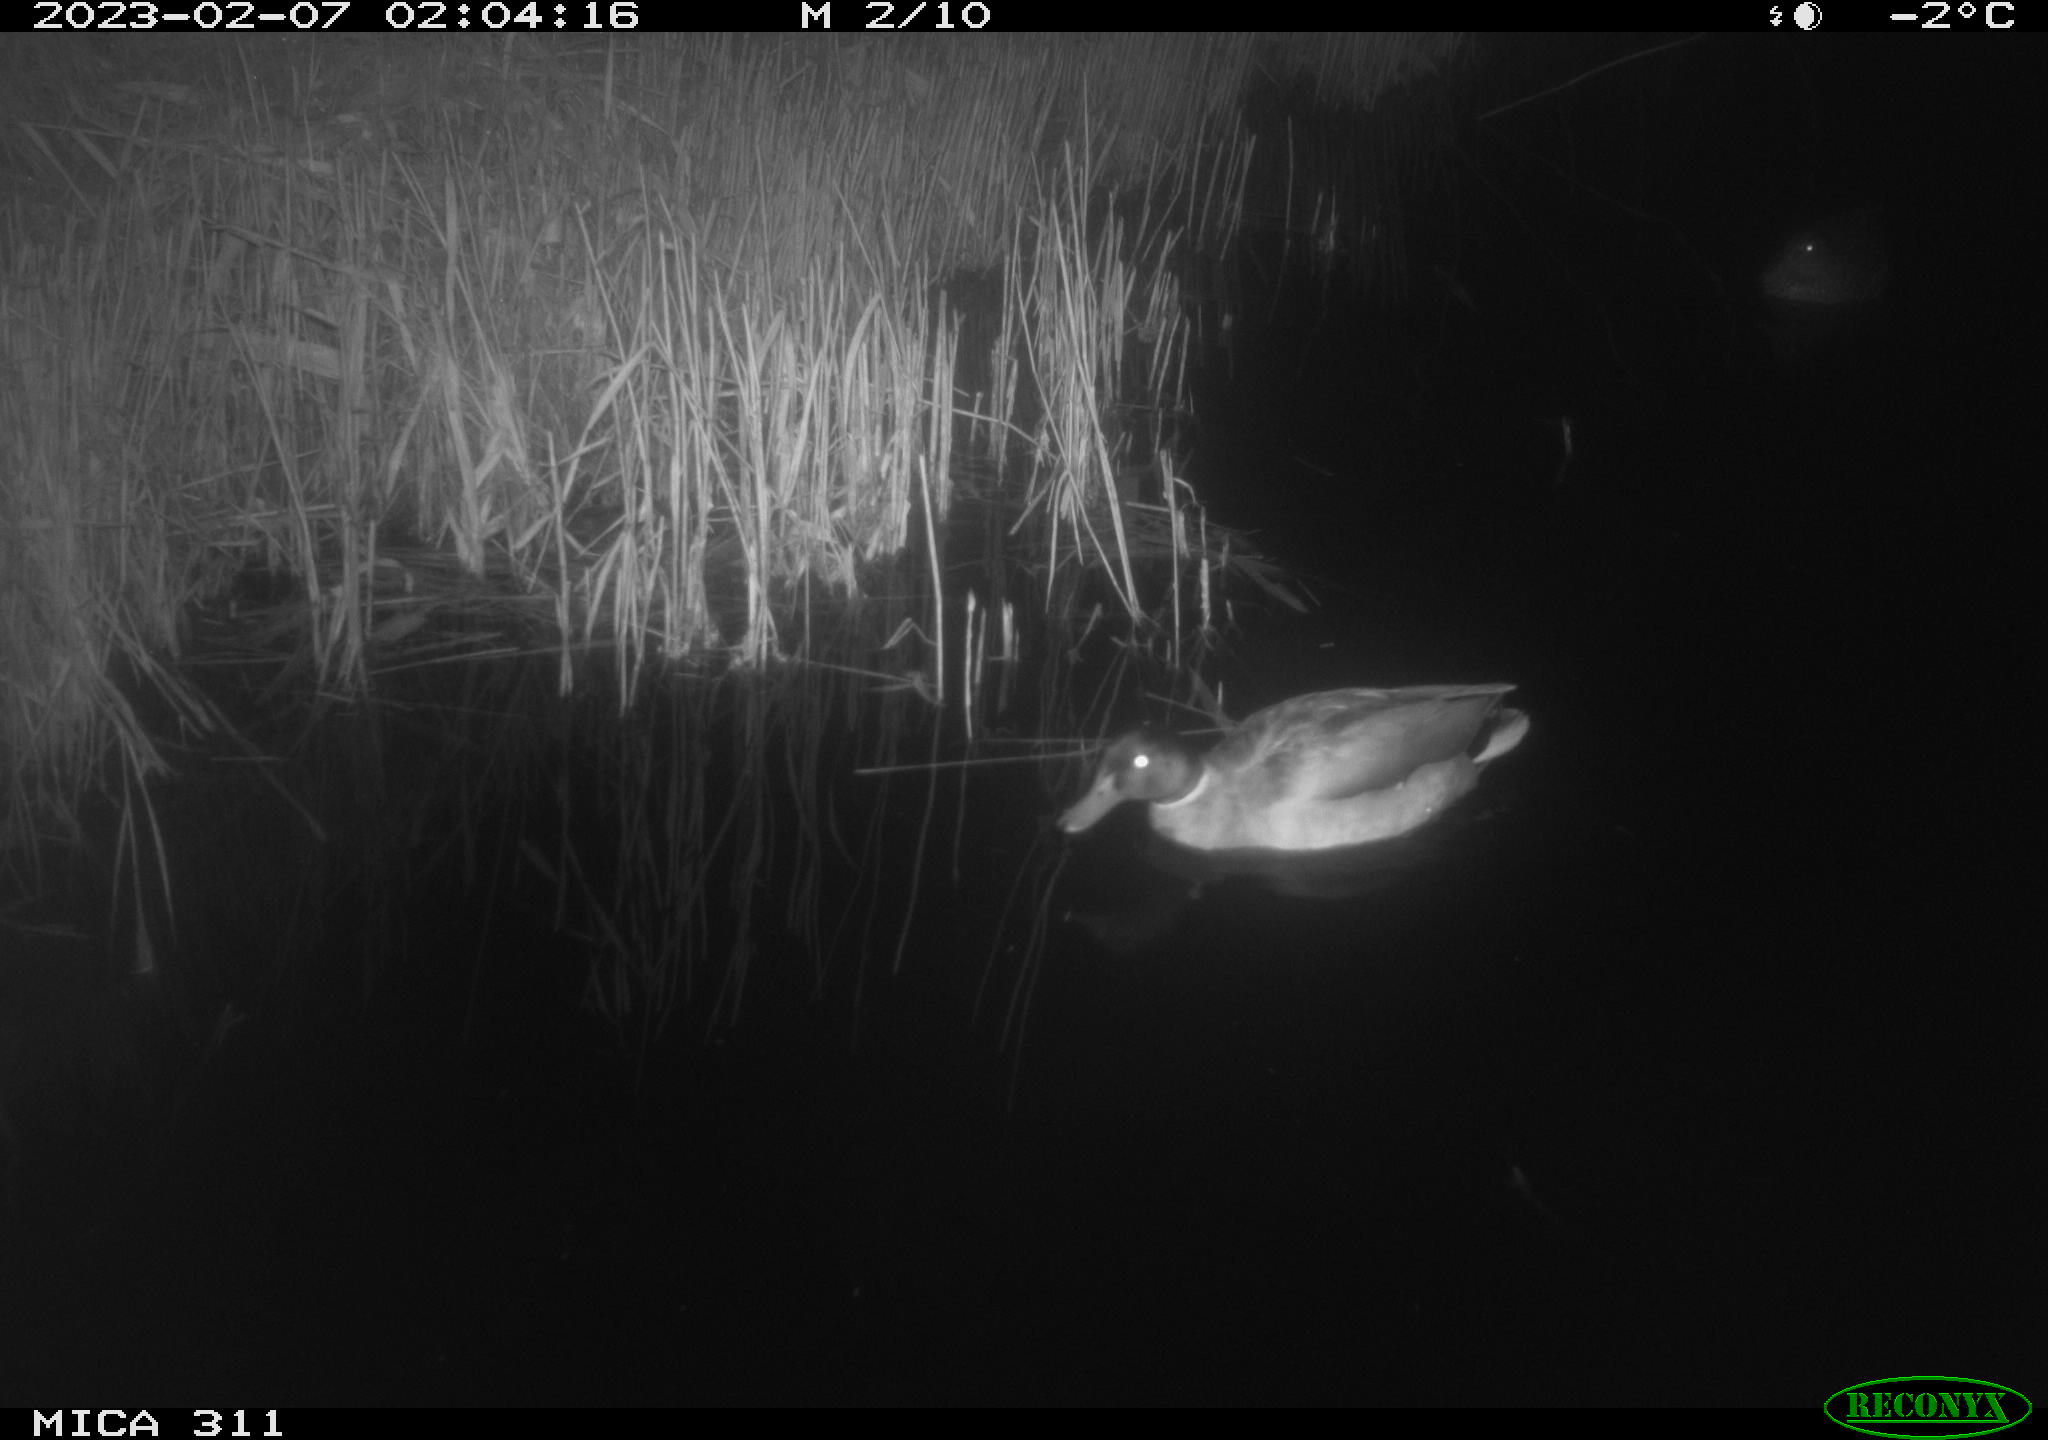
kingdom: Animalia
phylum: Chordata
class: Aves
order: Anseriformes
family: Anatidae
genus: Anas
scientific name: Anas platyrhynchos
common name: Mallard
